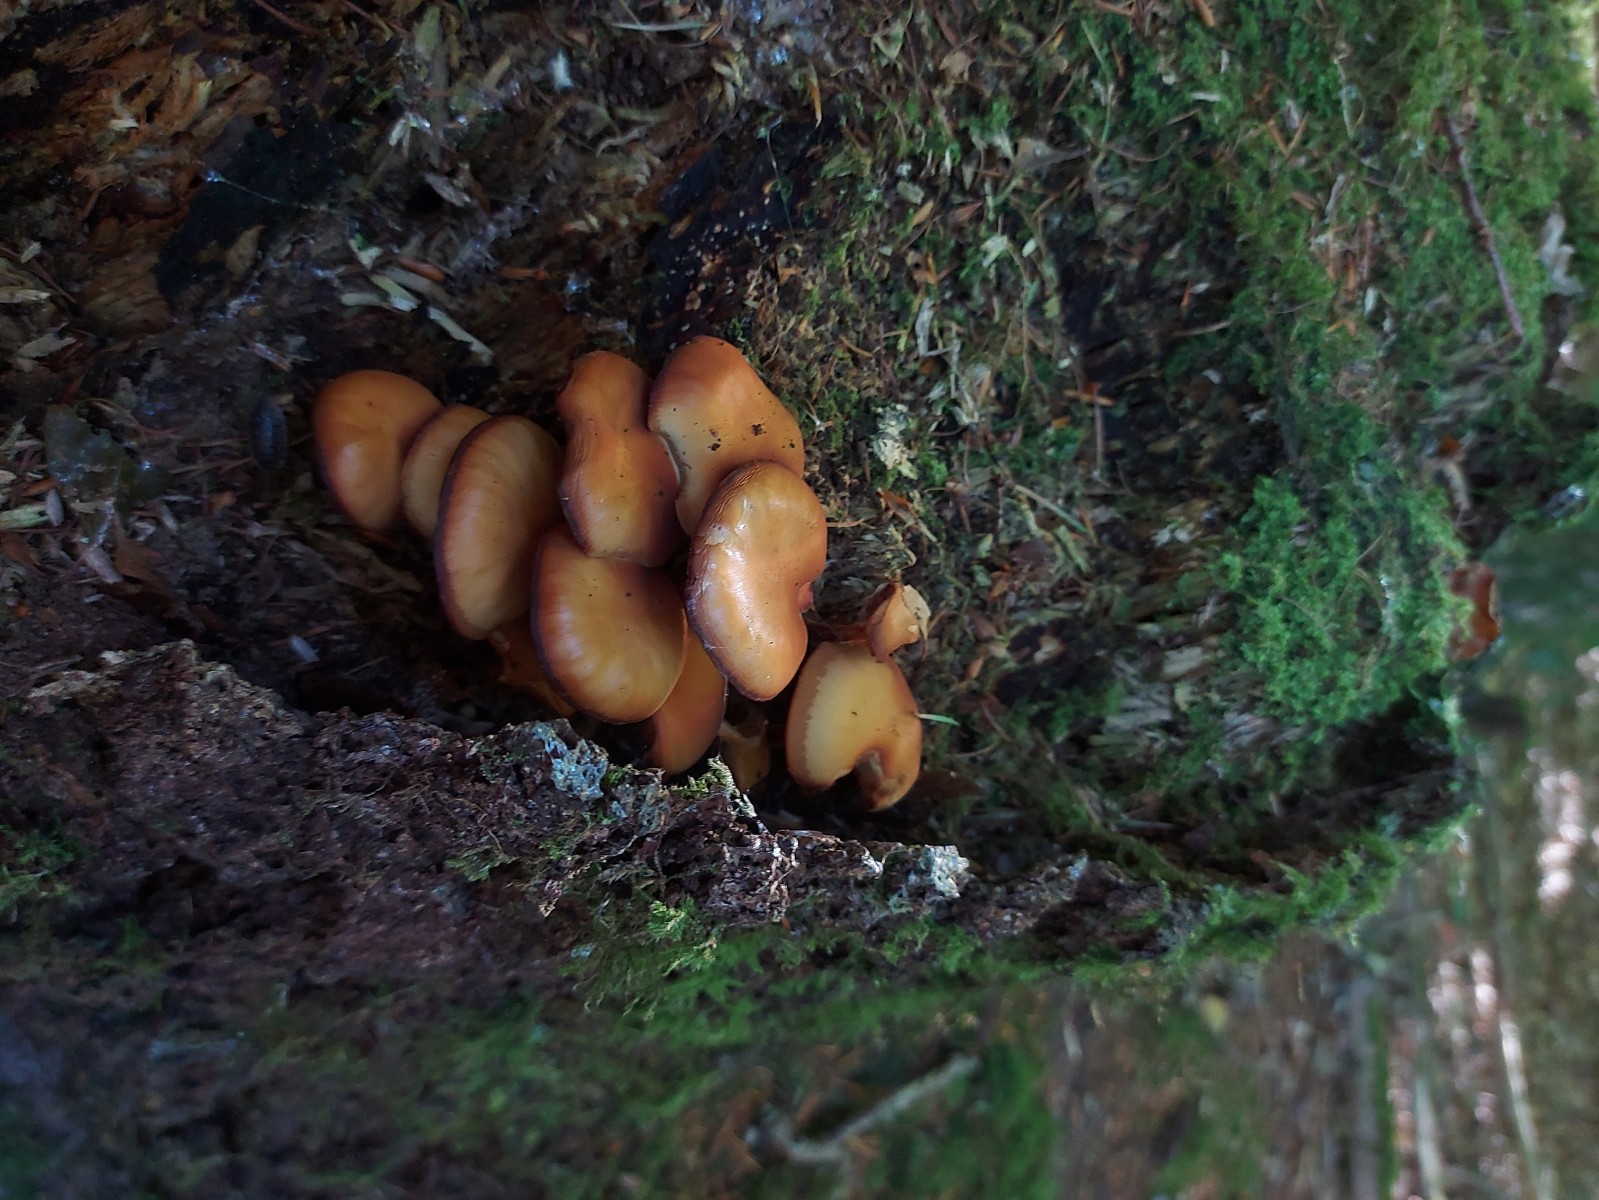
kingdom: Fungi
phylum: Basidiomycota
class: Agaricomycetes
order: Agaricales
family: Strophariaceae
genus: Kuehneromyces
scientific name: Kuehneromyces mutabilis
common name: foranderlig skælhat
